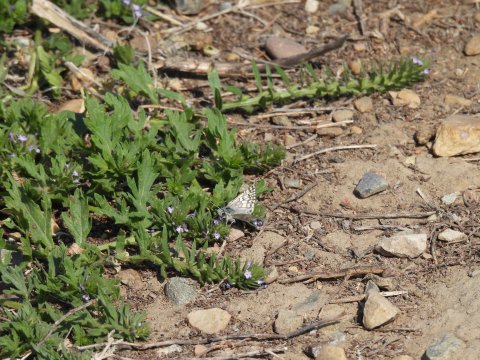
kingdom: Animalia
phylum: Arthropoda
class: Insecta
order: Lepidoptera
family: Hesperiidae
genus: Pyrgus
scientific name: Pyrgus communis
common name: Common Checkered-Skipper
